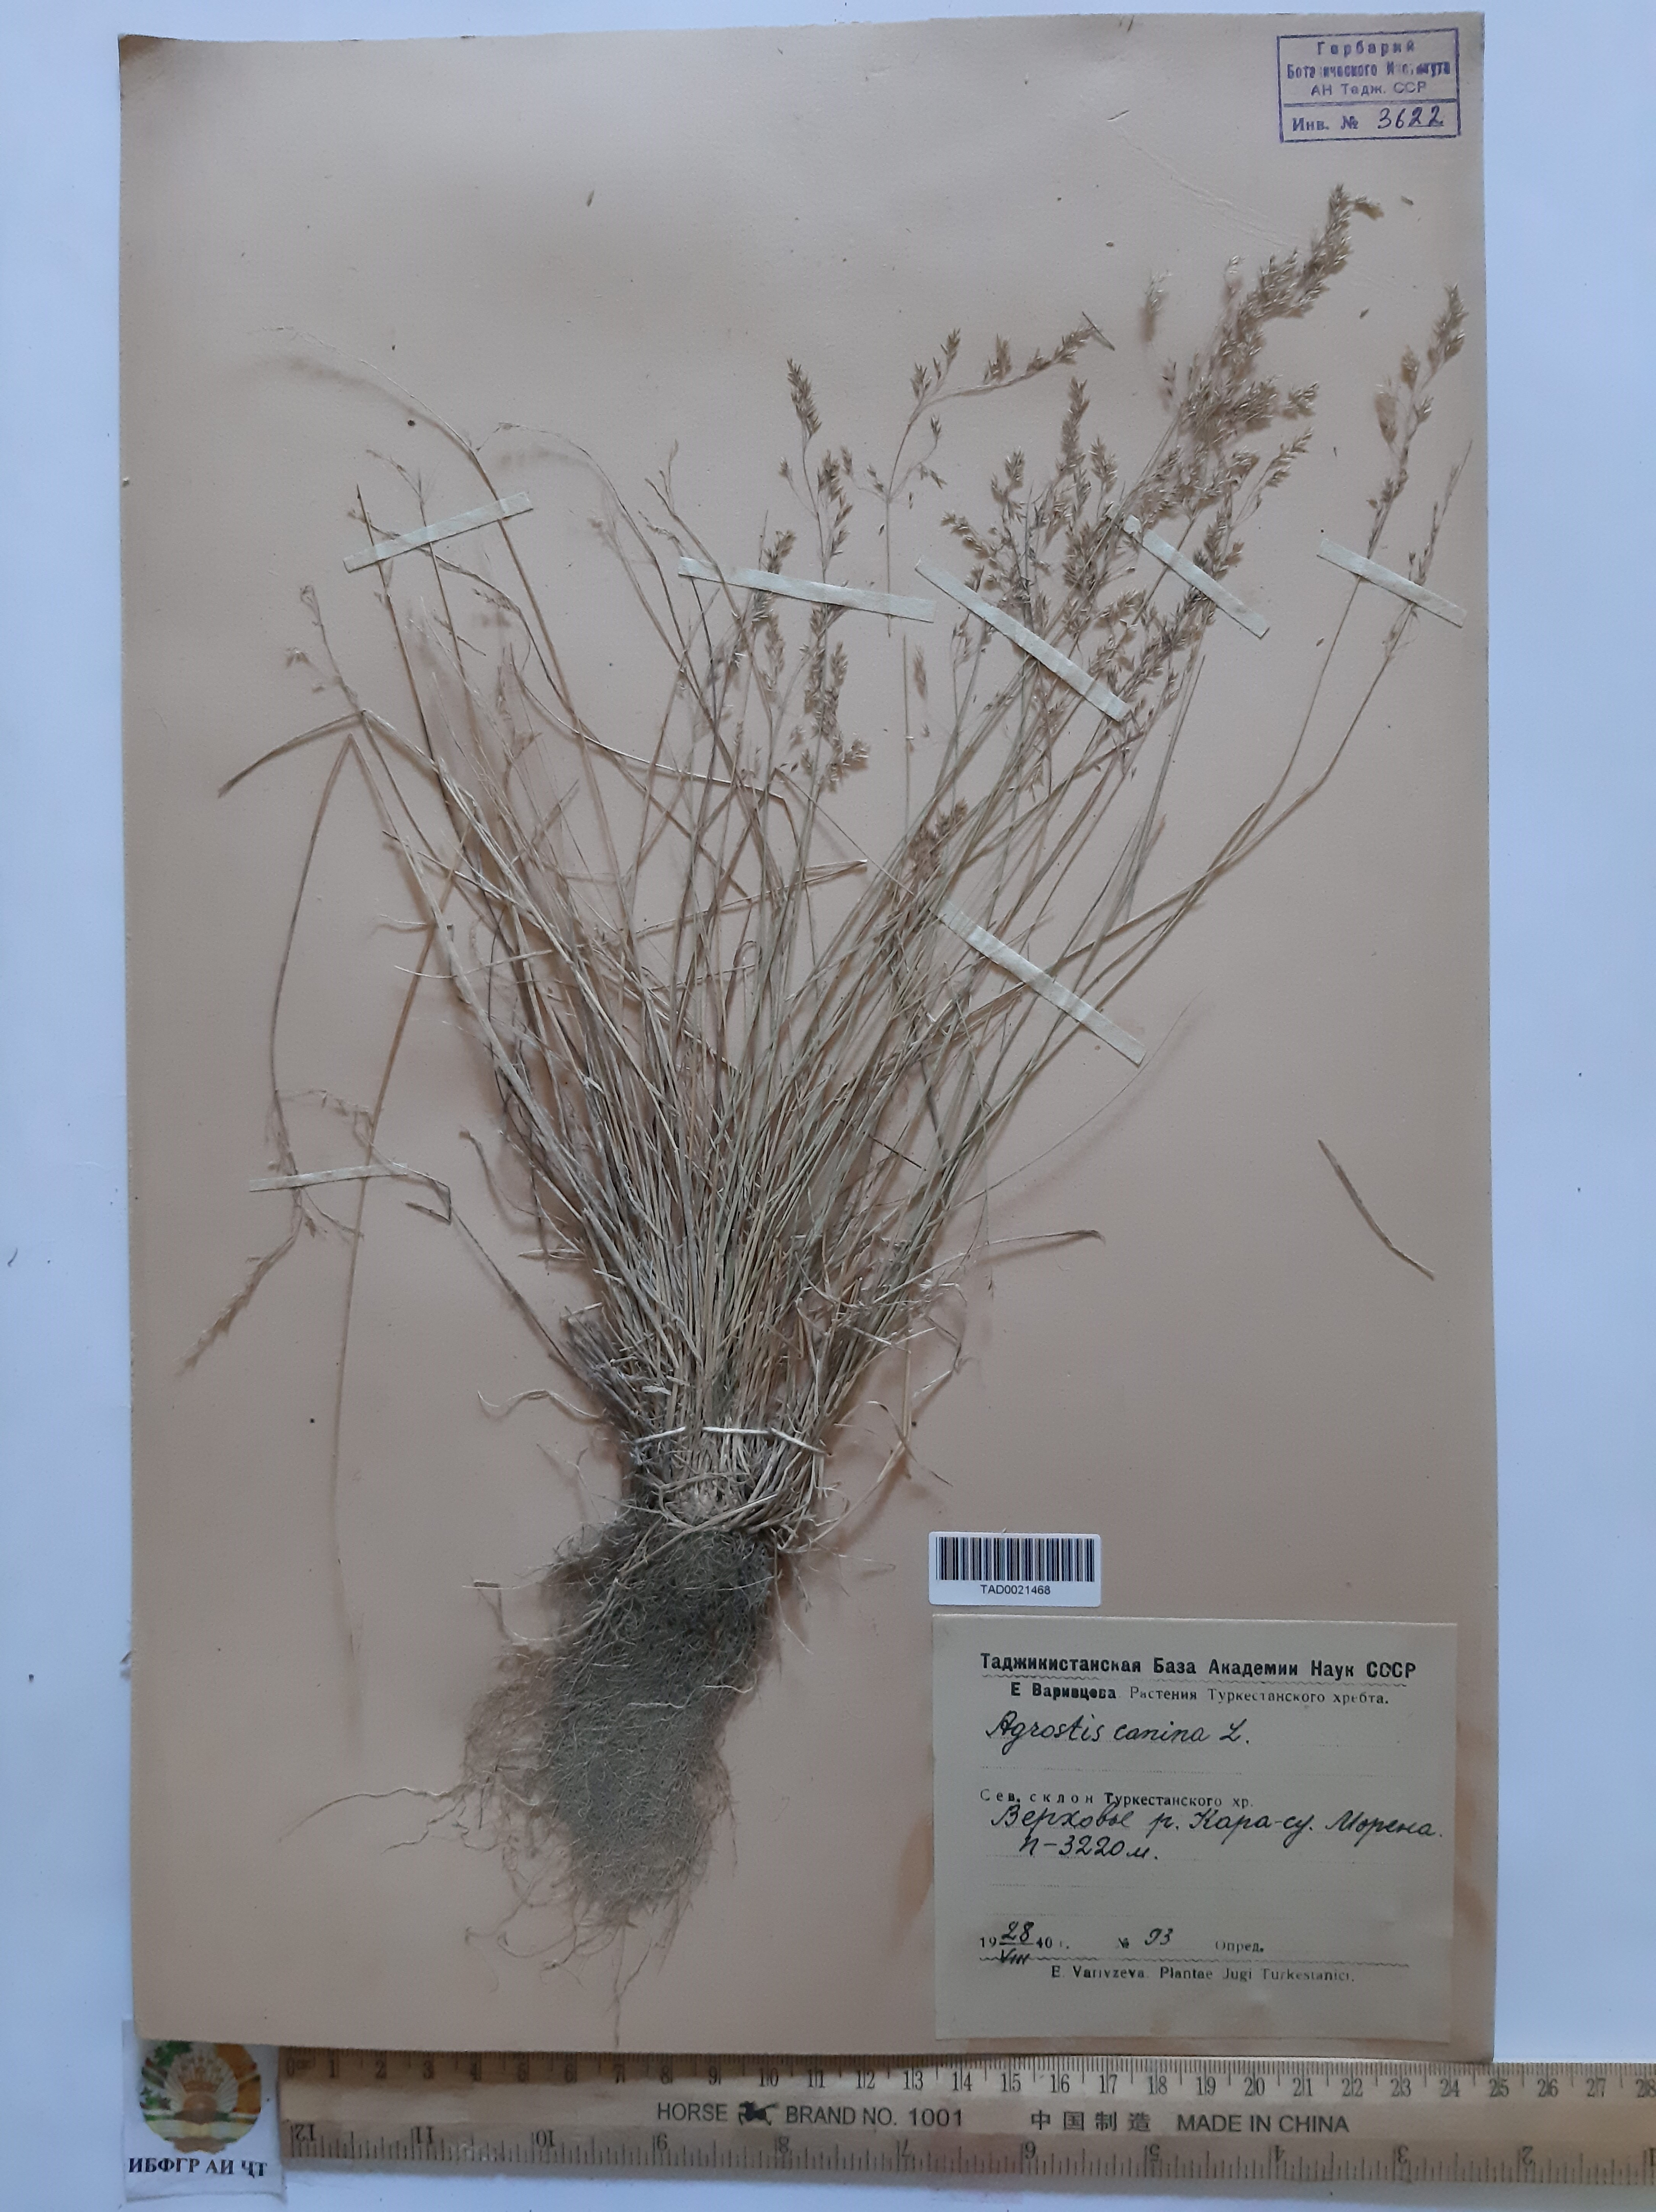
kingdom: Plantae
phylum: Tracheophyta
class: Liliopsida
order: Poales
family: Poaceae
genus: Agrostis
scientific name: Agrostis canina
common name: Velvet bent
